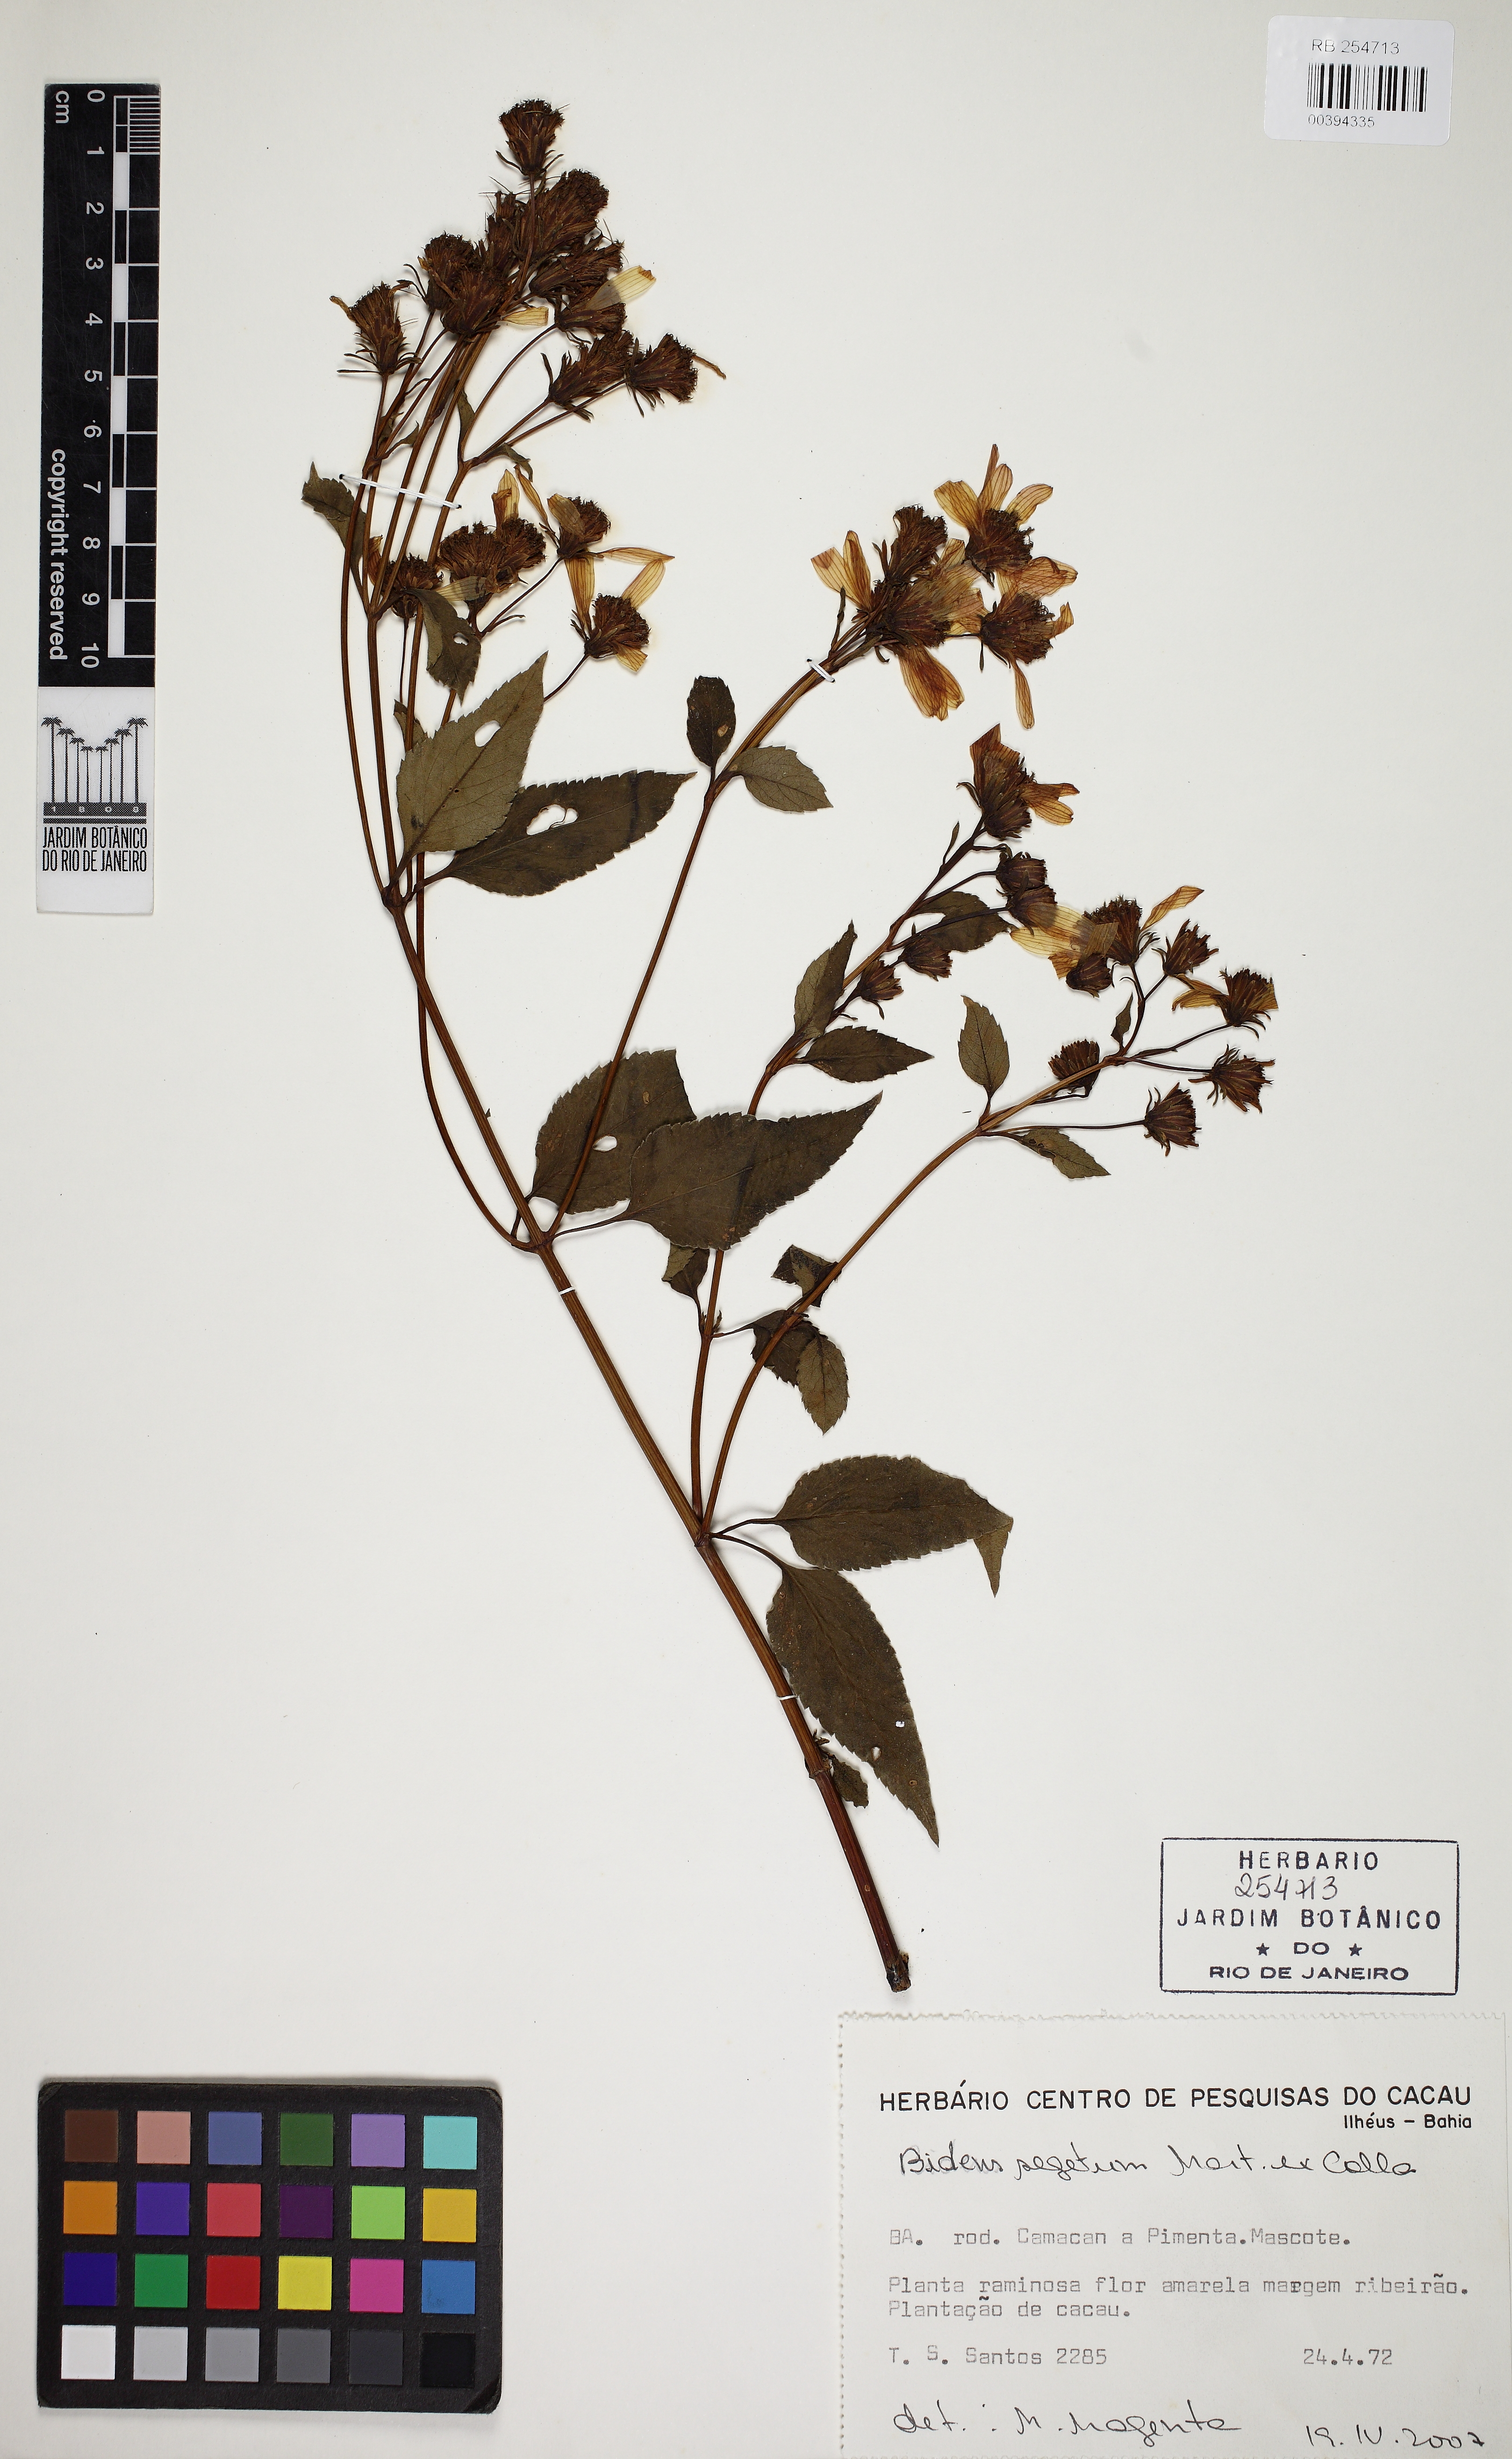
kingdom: Plantae
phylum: Tracheophyta
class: Magnoliopsida
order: Asterales
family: Asteraceae
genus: Bidens
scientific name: Bidens segetum
